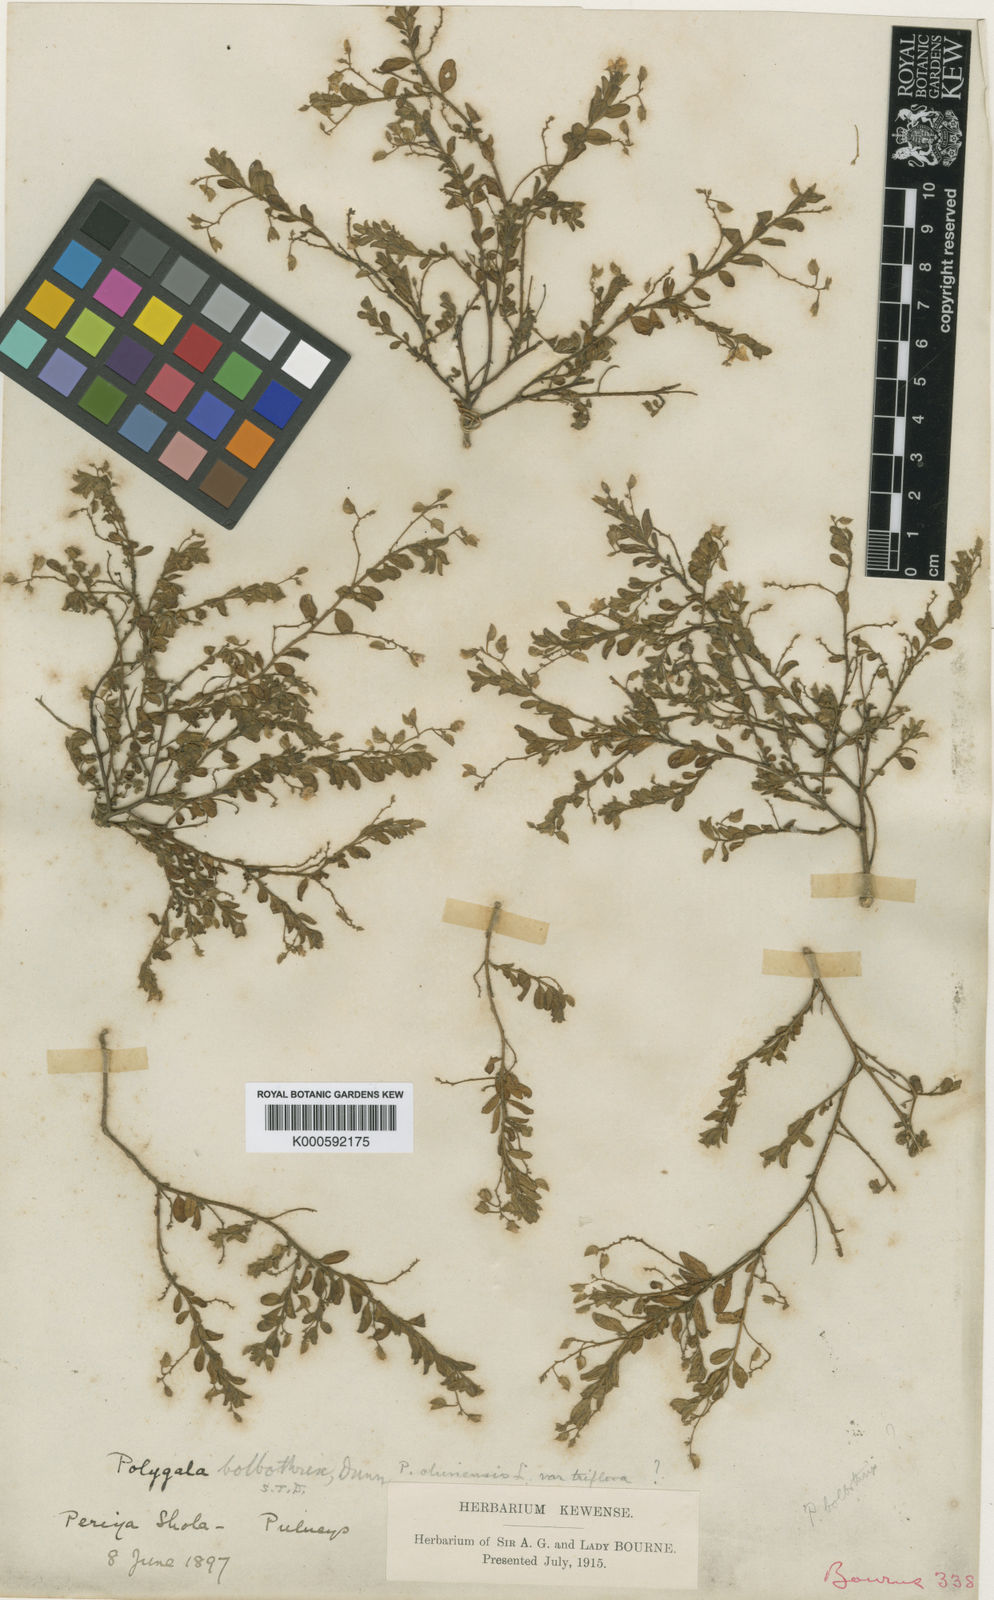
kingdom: Plantae
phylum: Tracheophyta
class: Magnoliopsida
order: Fabales
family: Polygalaceae
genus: Polygala
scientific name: Polygala bolbothrix
